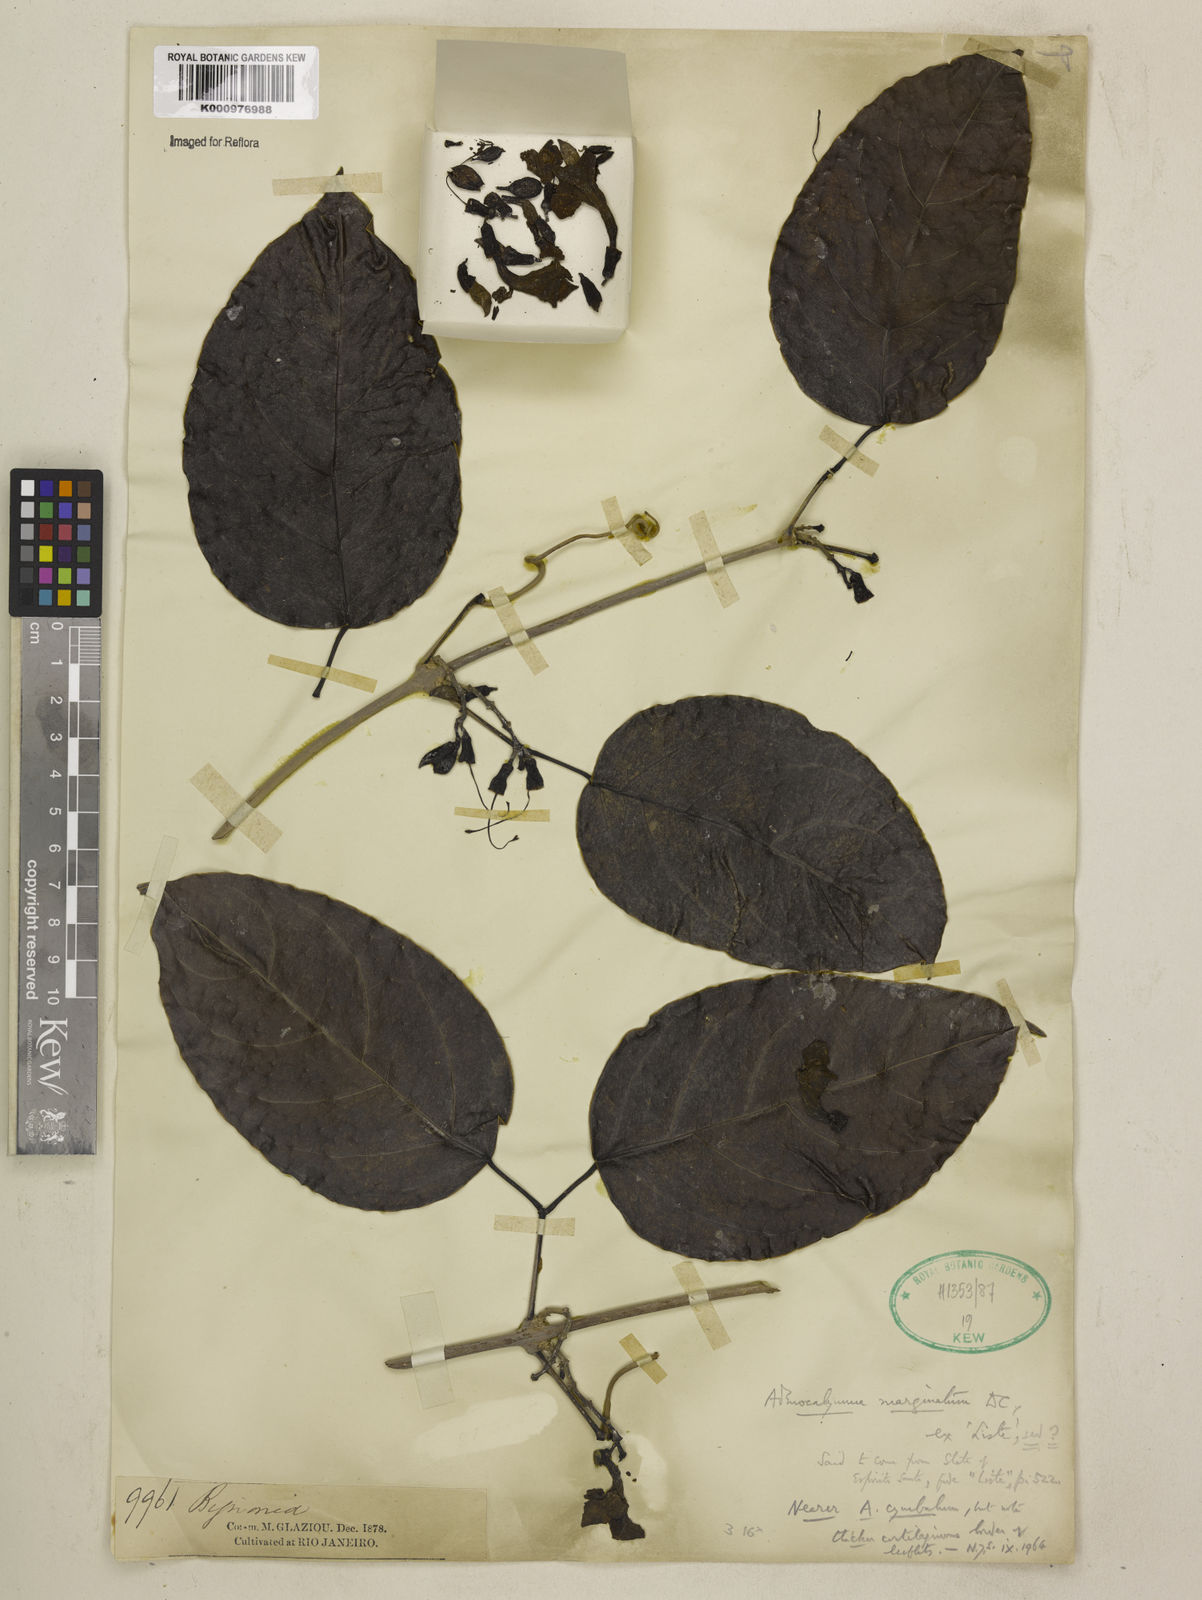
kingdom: Plantae
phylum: Tracheophyta
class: Magnoliopsida
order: Lamiales
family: Bignoniaceae
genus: Adenocalymma
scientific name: Adenocalymma marginatum
